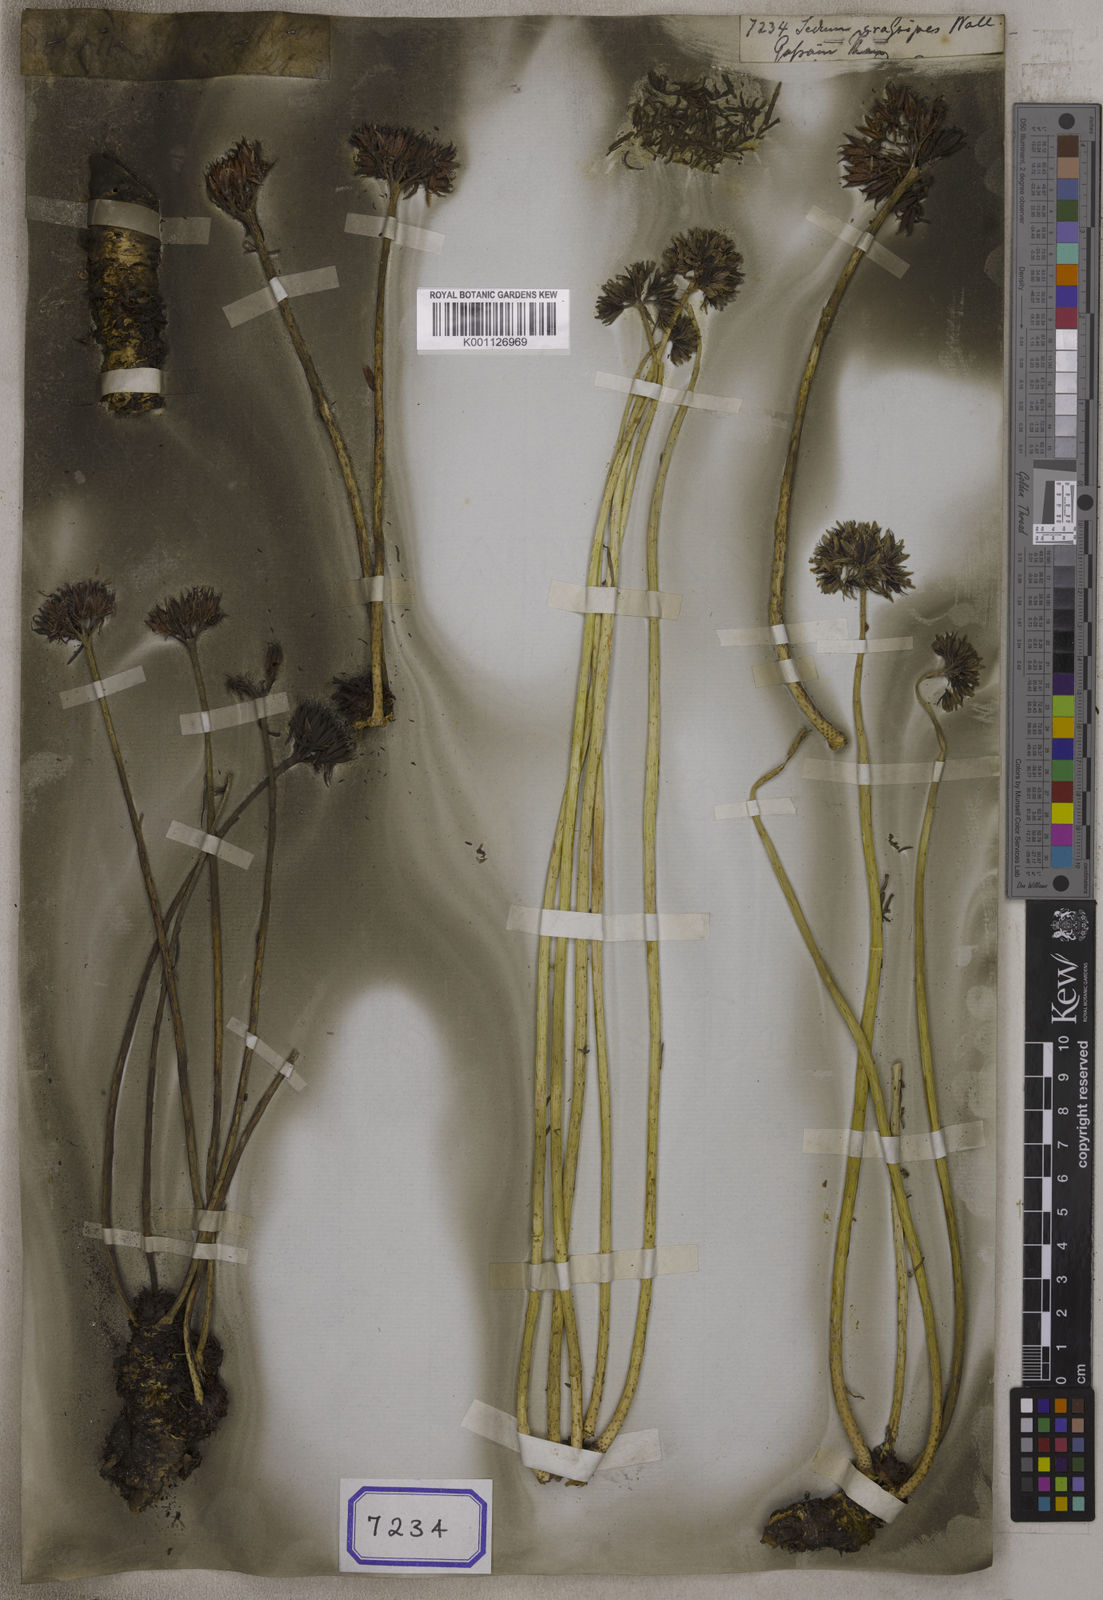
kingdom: Plantae
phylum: Tracheophyta
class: Magnoliopsida
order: Saxifragales
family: Crassulaceae
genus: Sedum
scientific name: Sedum
